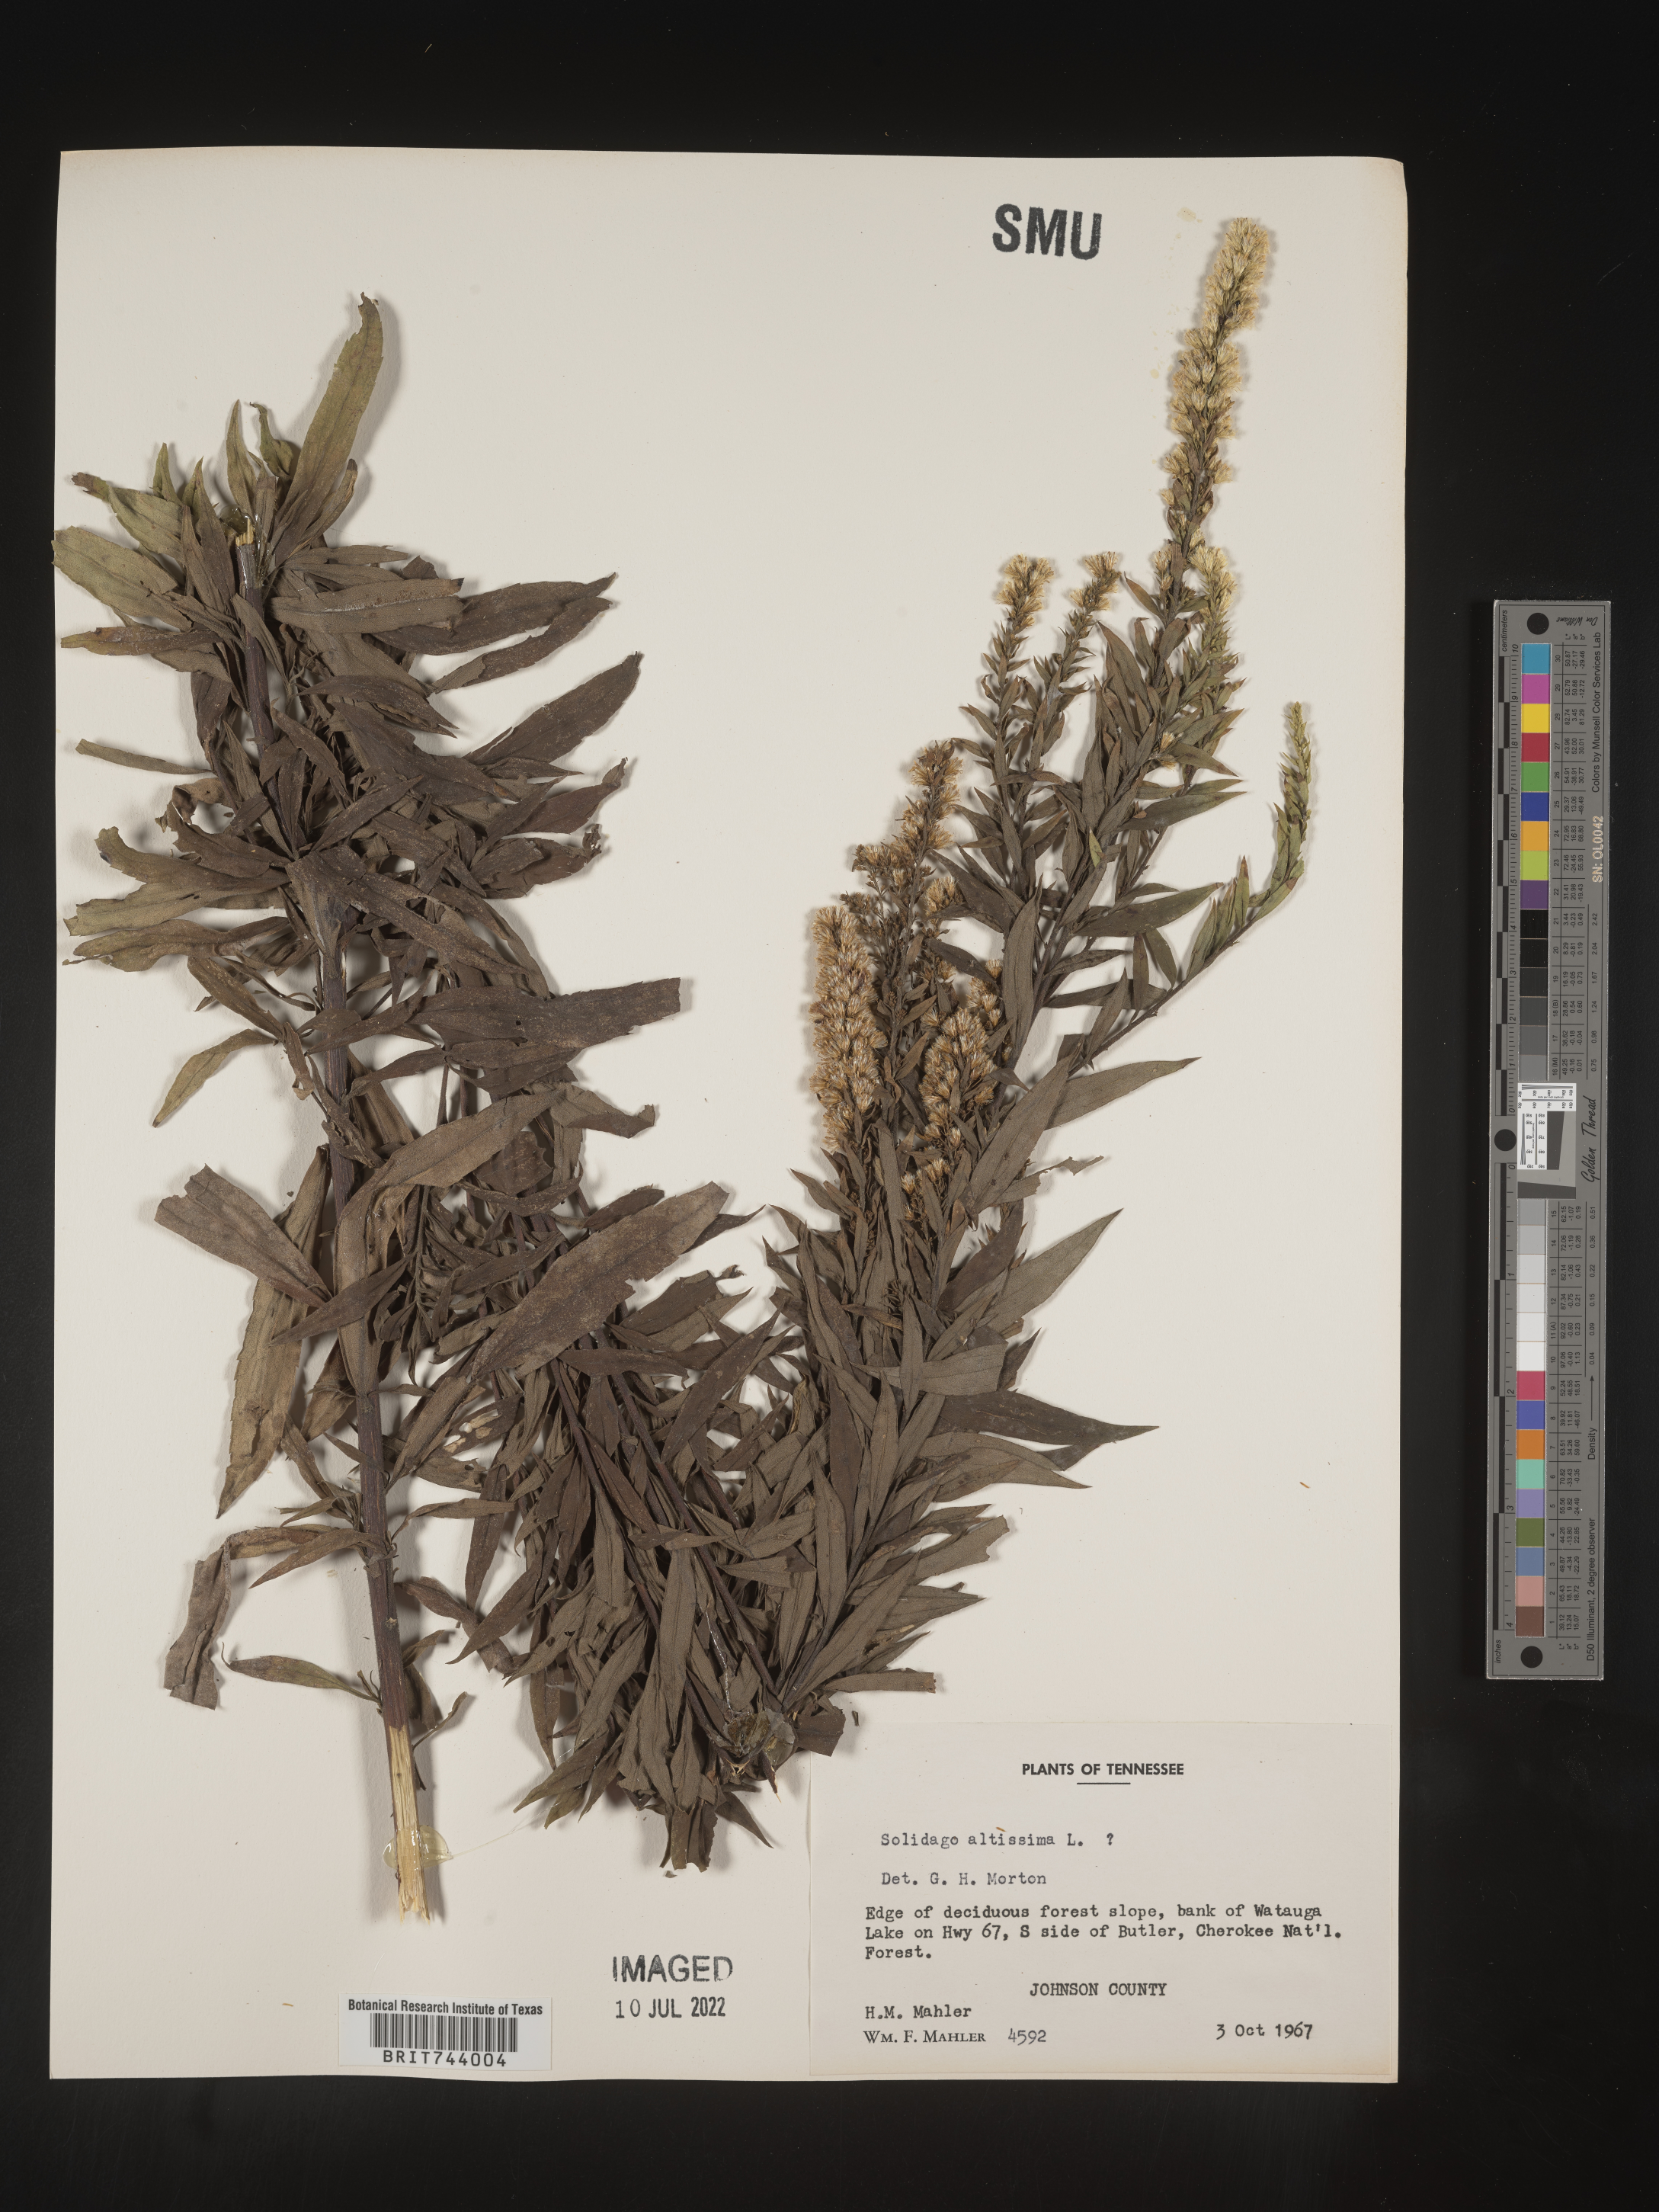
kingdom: Plantae
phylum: Tracheophyta
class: Magnoliopsida
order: Asterales
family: Asteraceae
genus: Solidago
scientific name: Solidago altissima
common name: Late goldenrod
